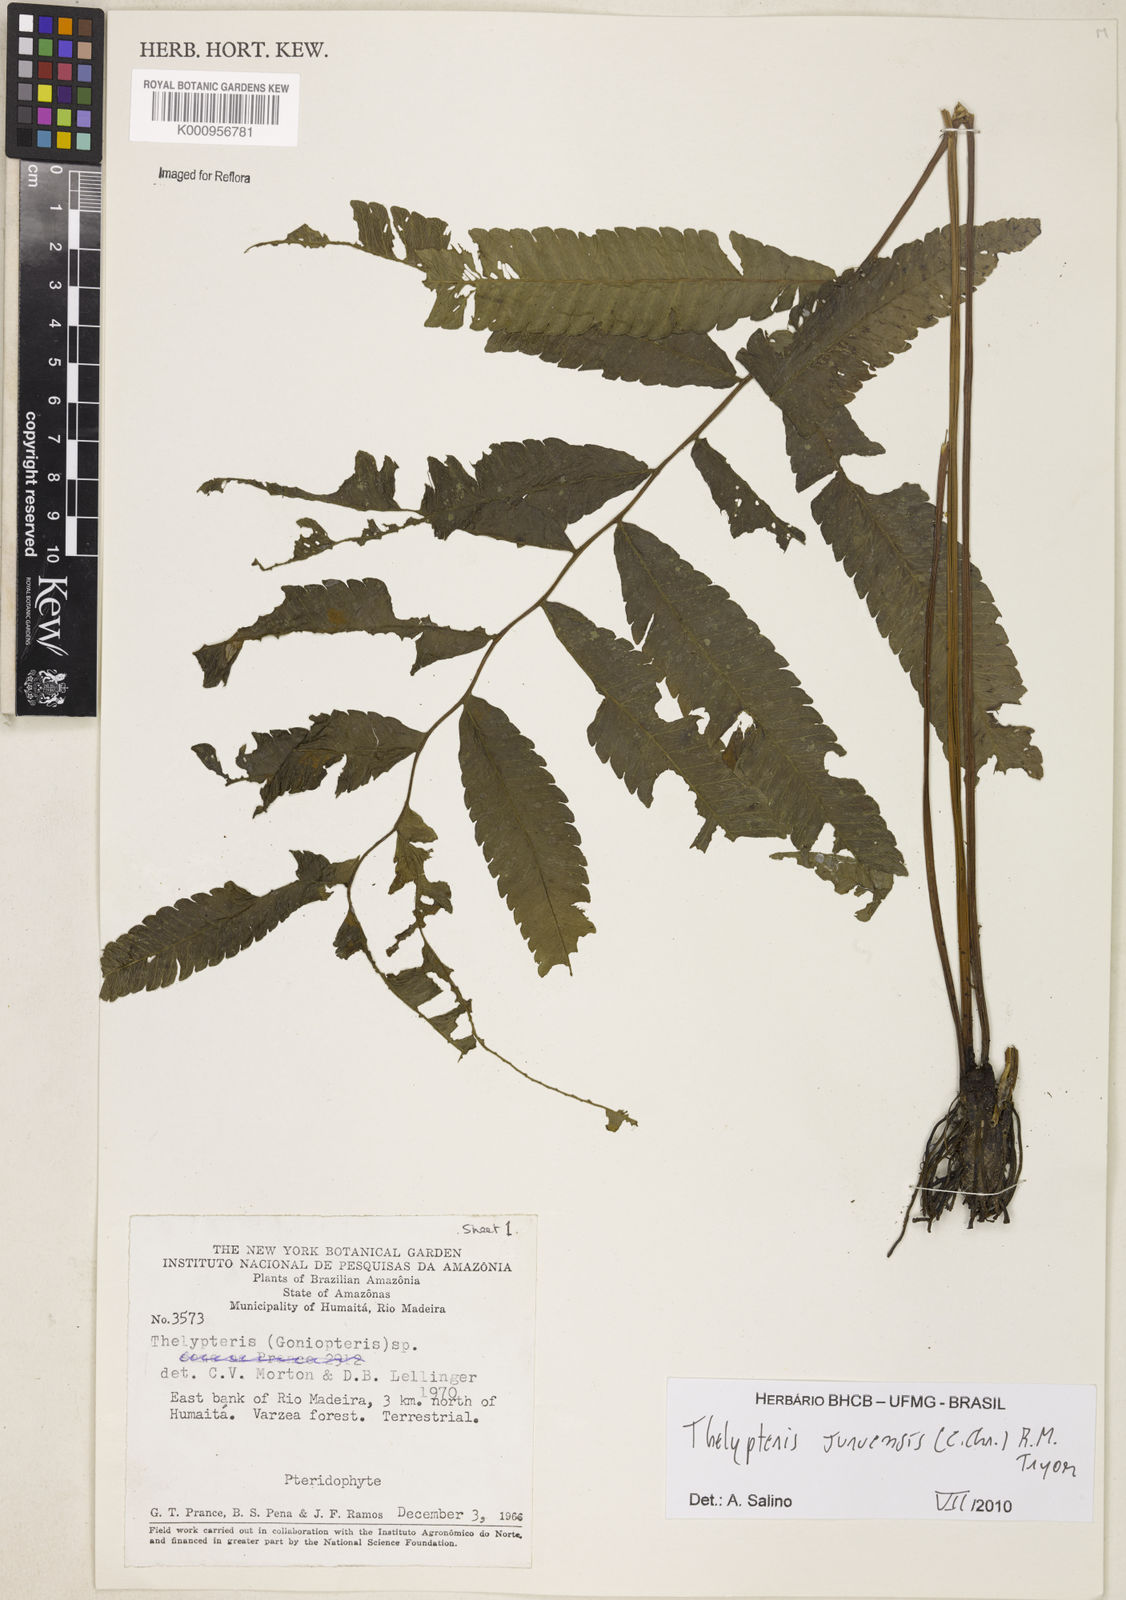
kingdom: Plantae
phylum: Tracheophyta
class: Polypodiopsida
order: Polypodiales
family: Thelypteridaceae
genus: Goniopteris
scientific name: Goniopteris juruensis
